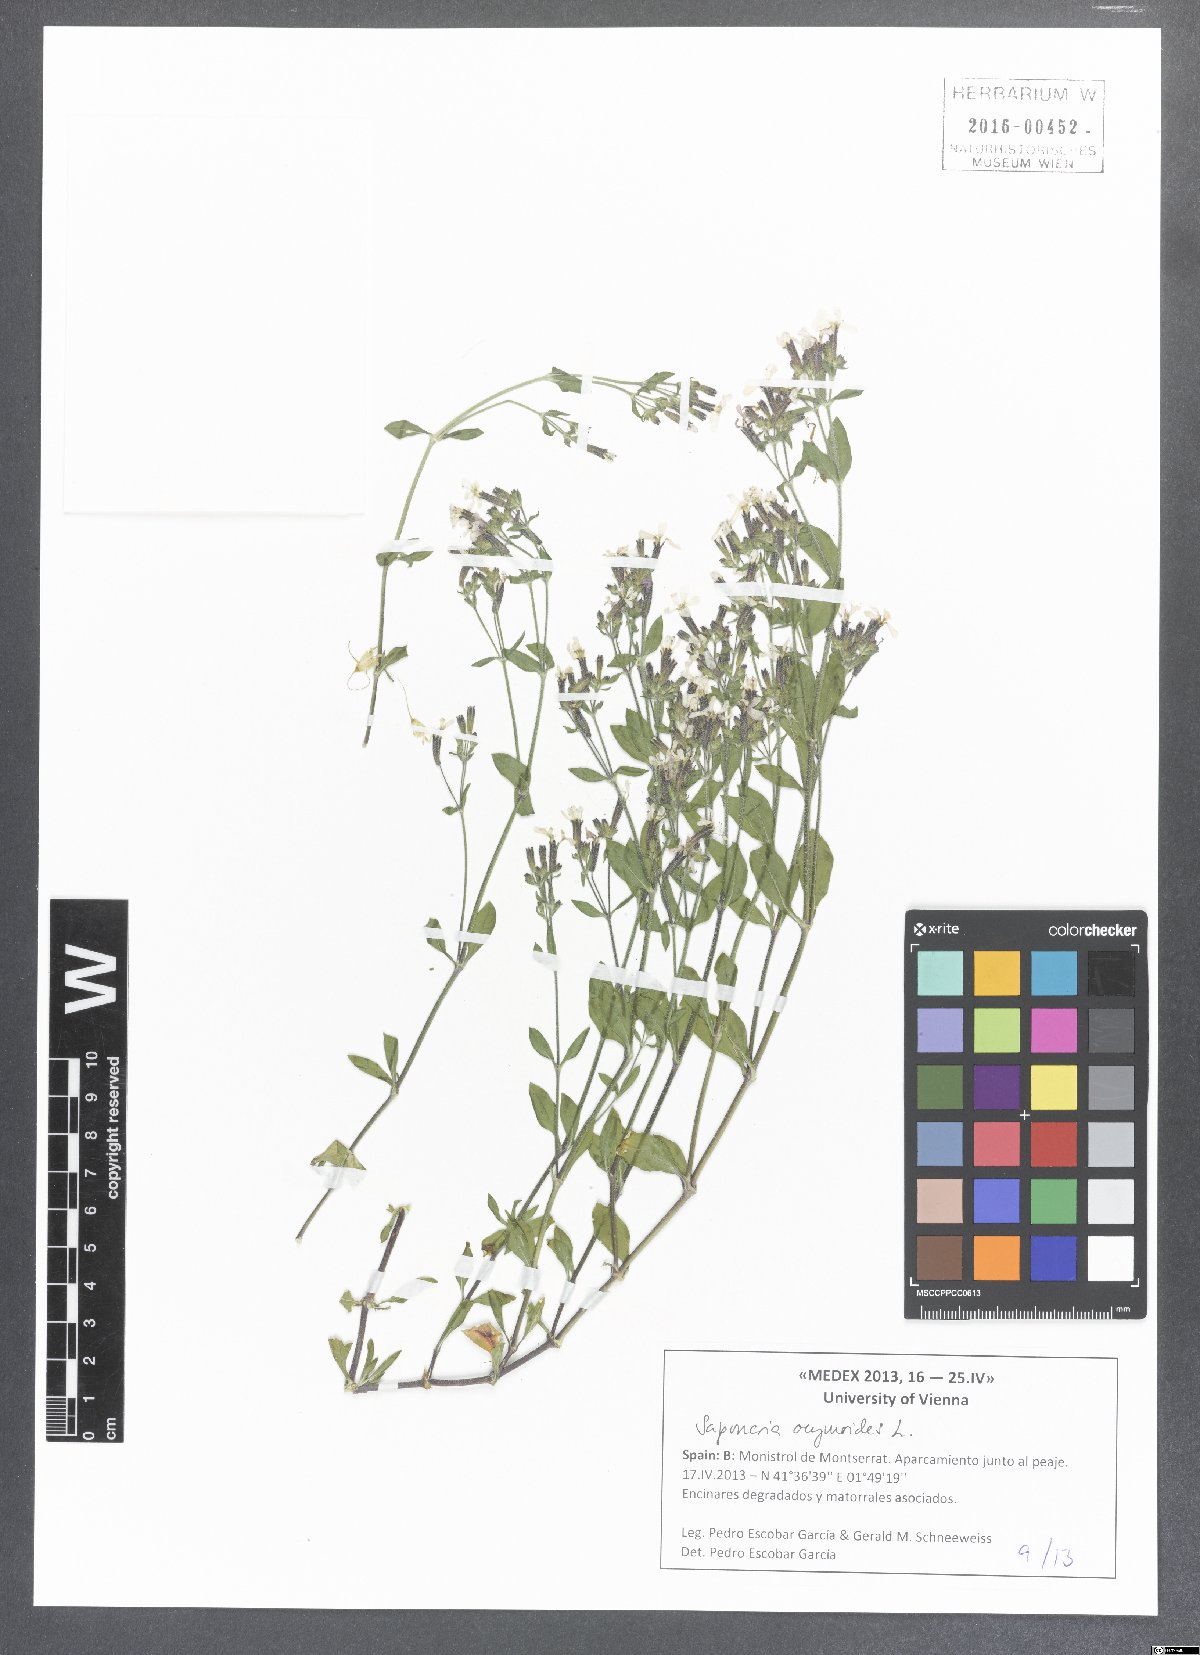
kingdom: Plantae
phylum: Tracheophyta
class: Magnoliopsida
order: Caryophyllales
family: Caryophyllaceae
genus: Saponaria
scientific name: Saponaria ocymoides
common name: Rock soapwort
